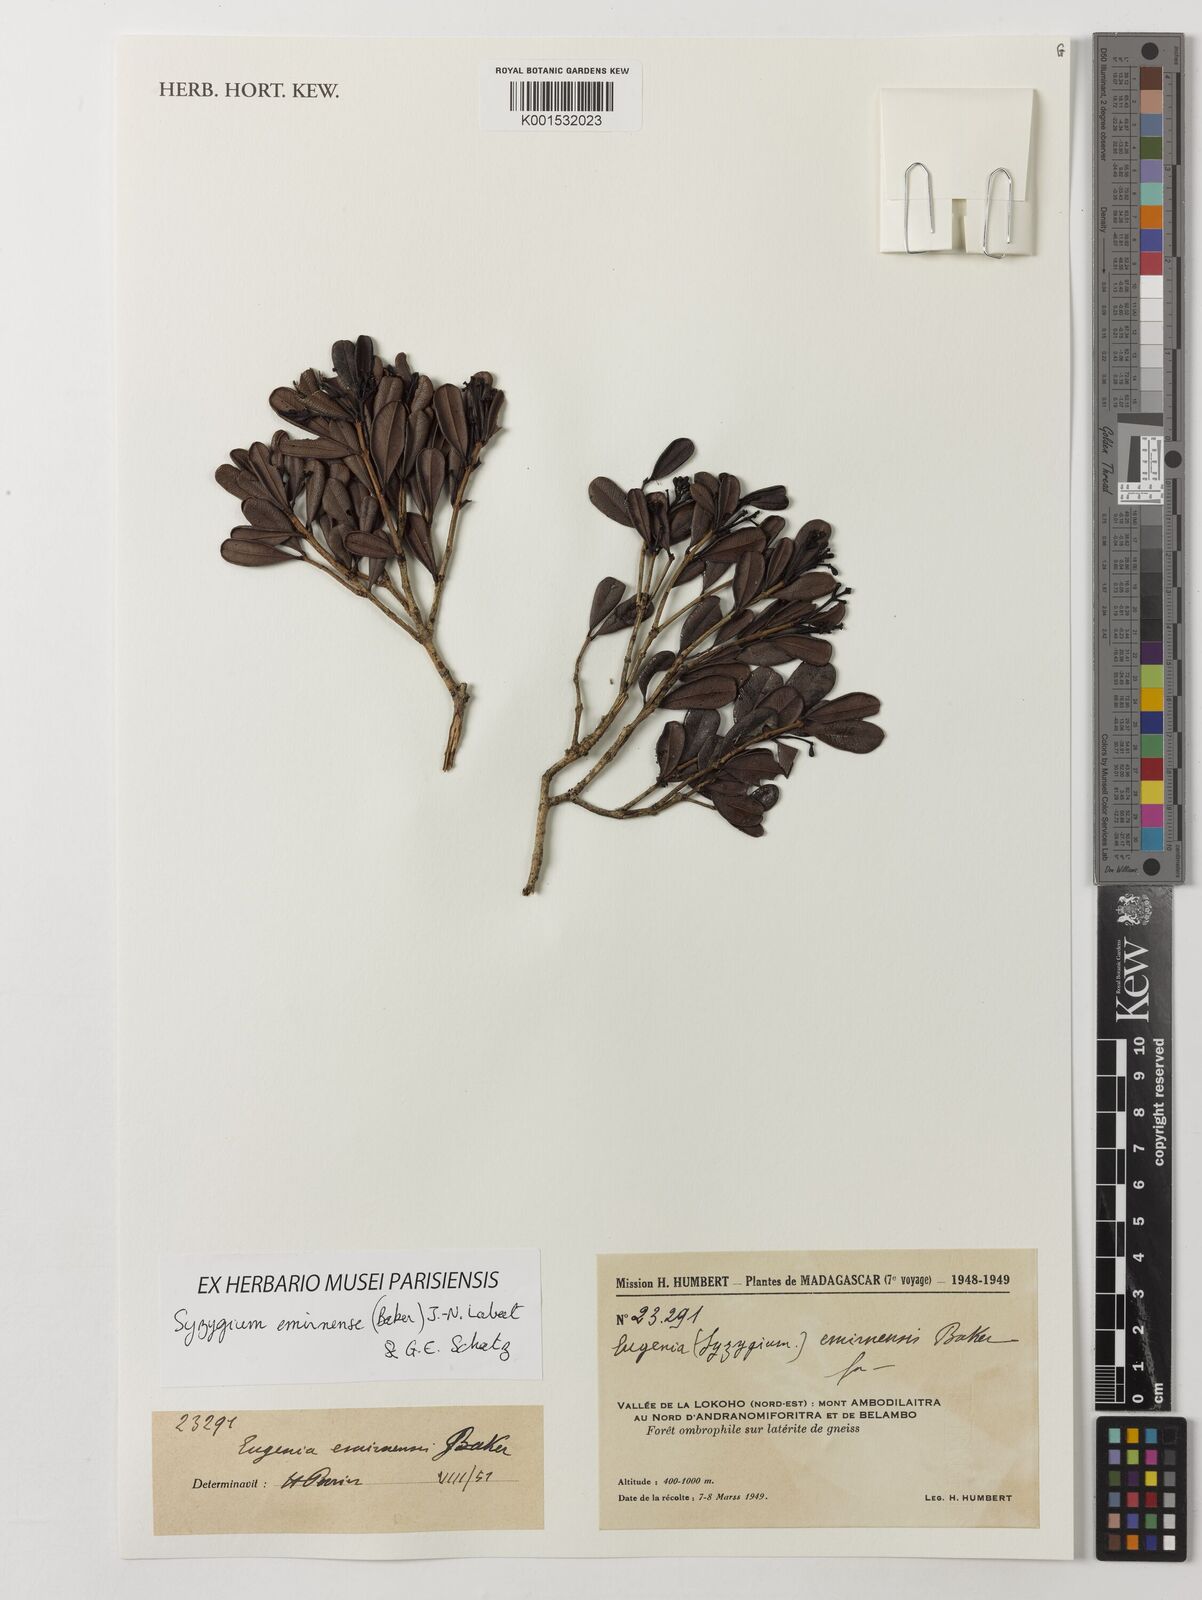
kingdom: Plantae
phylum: Tracheophyta
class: Magnoliopsida
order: Myrtales
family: Myrtaceae
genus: Syzygium
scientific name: Syzygium emirnense
